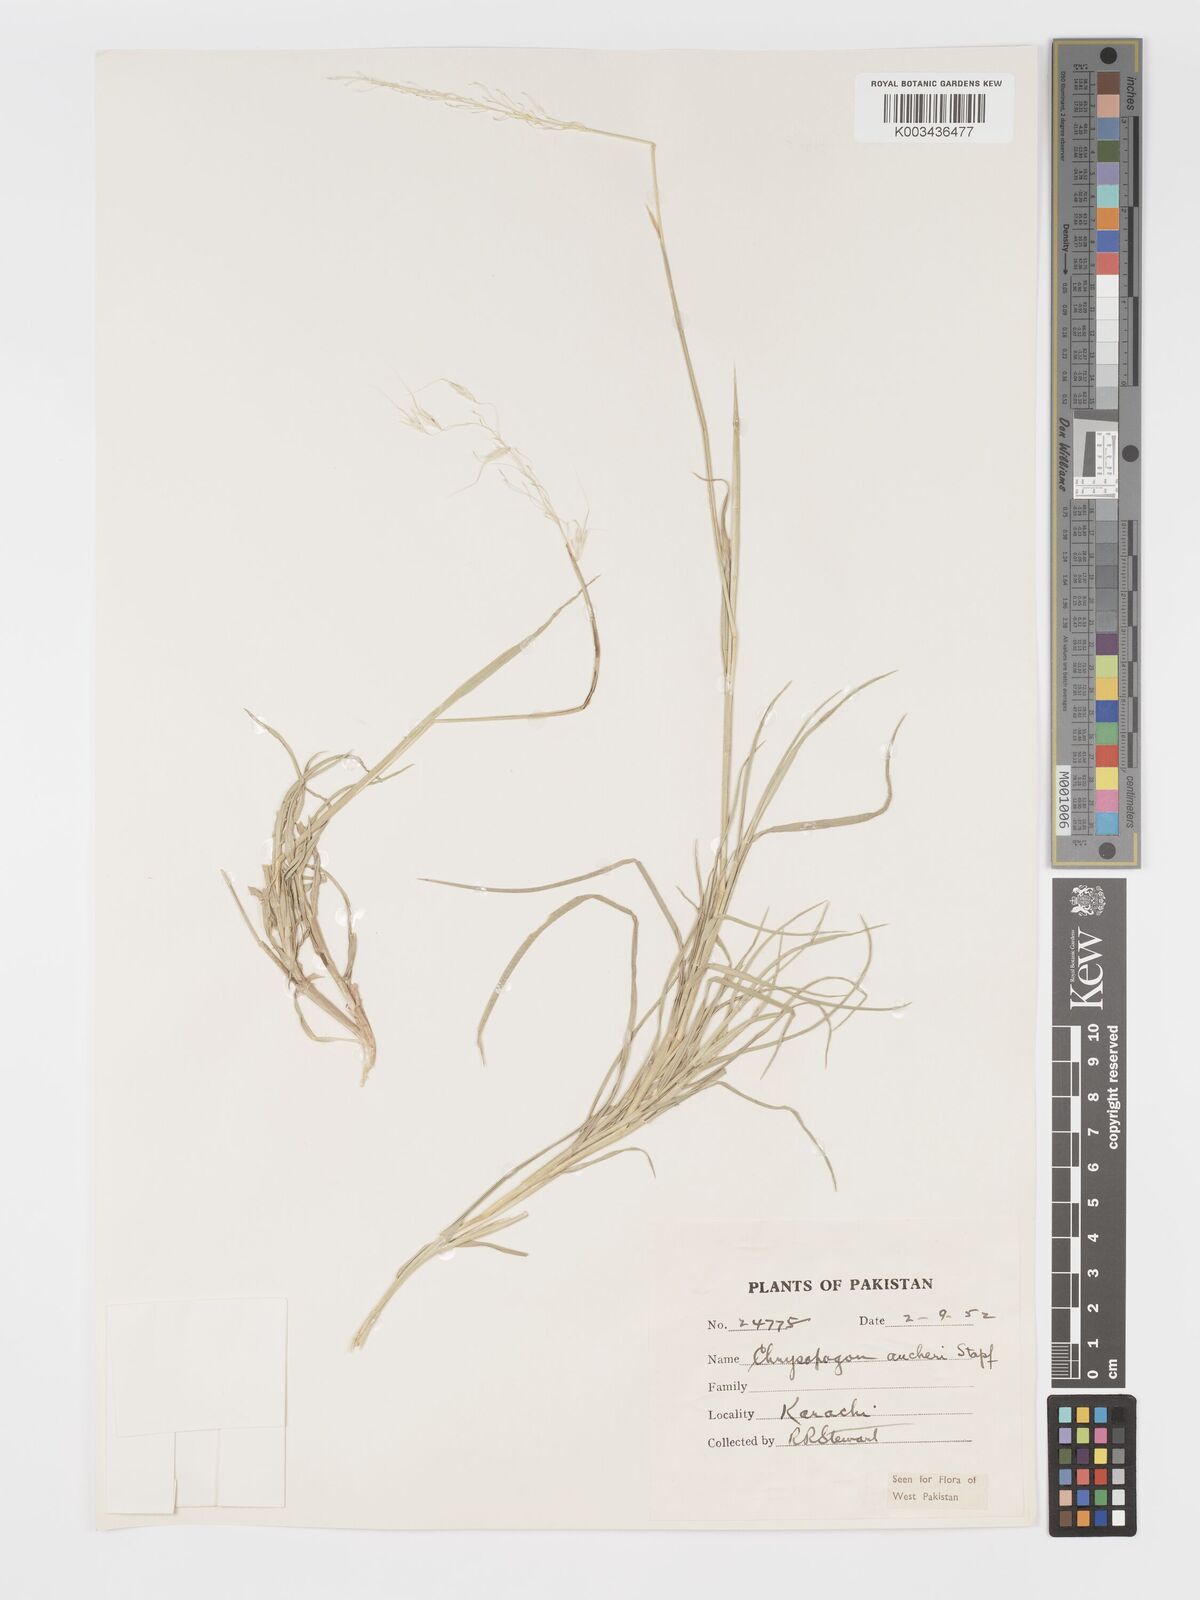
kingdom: Plantae
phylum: Tracheophyta
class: Liliopsida
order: Poales
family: Poaceae
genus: Chrysopogon
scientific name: Chrysopogon aucheri
